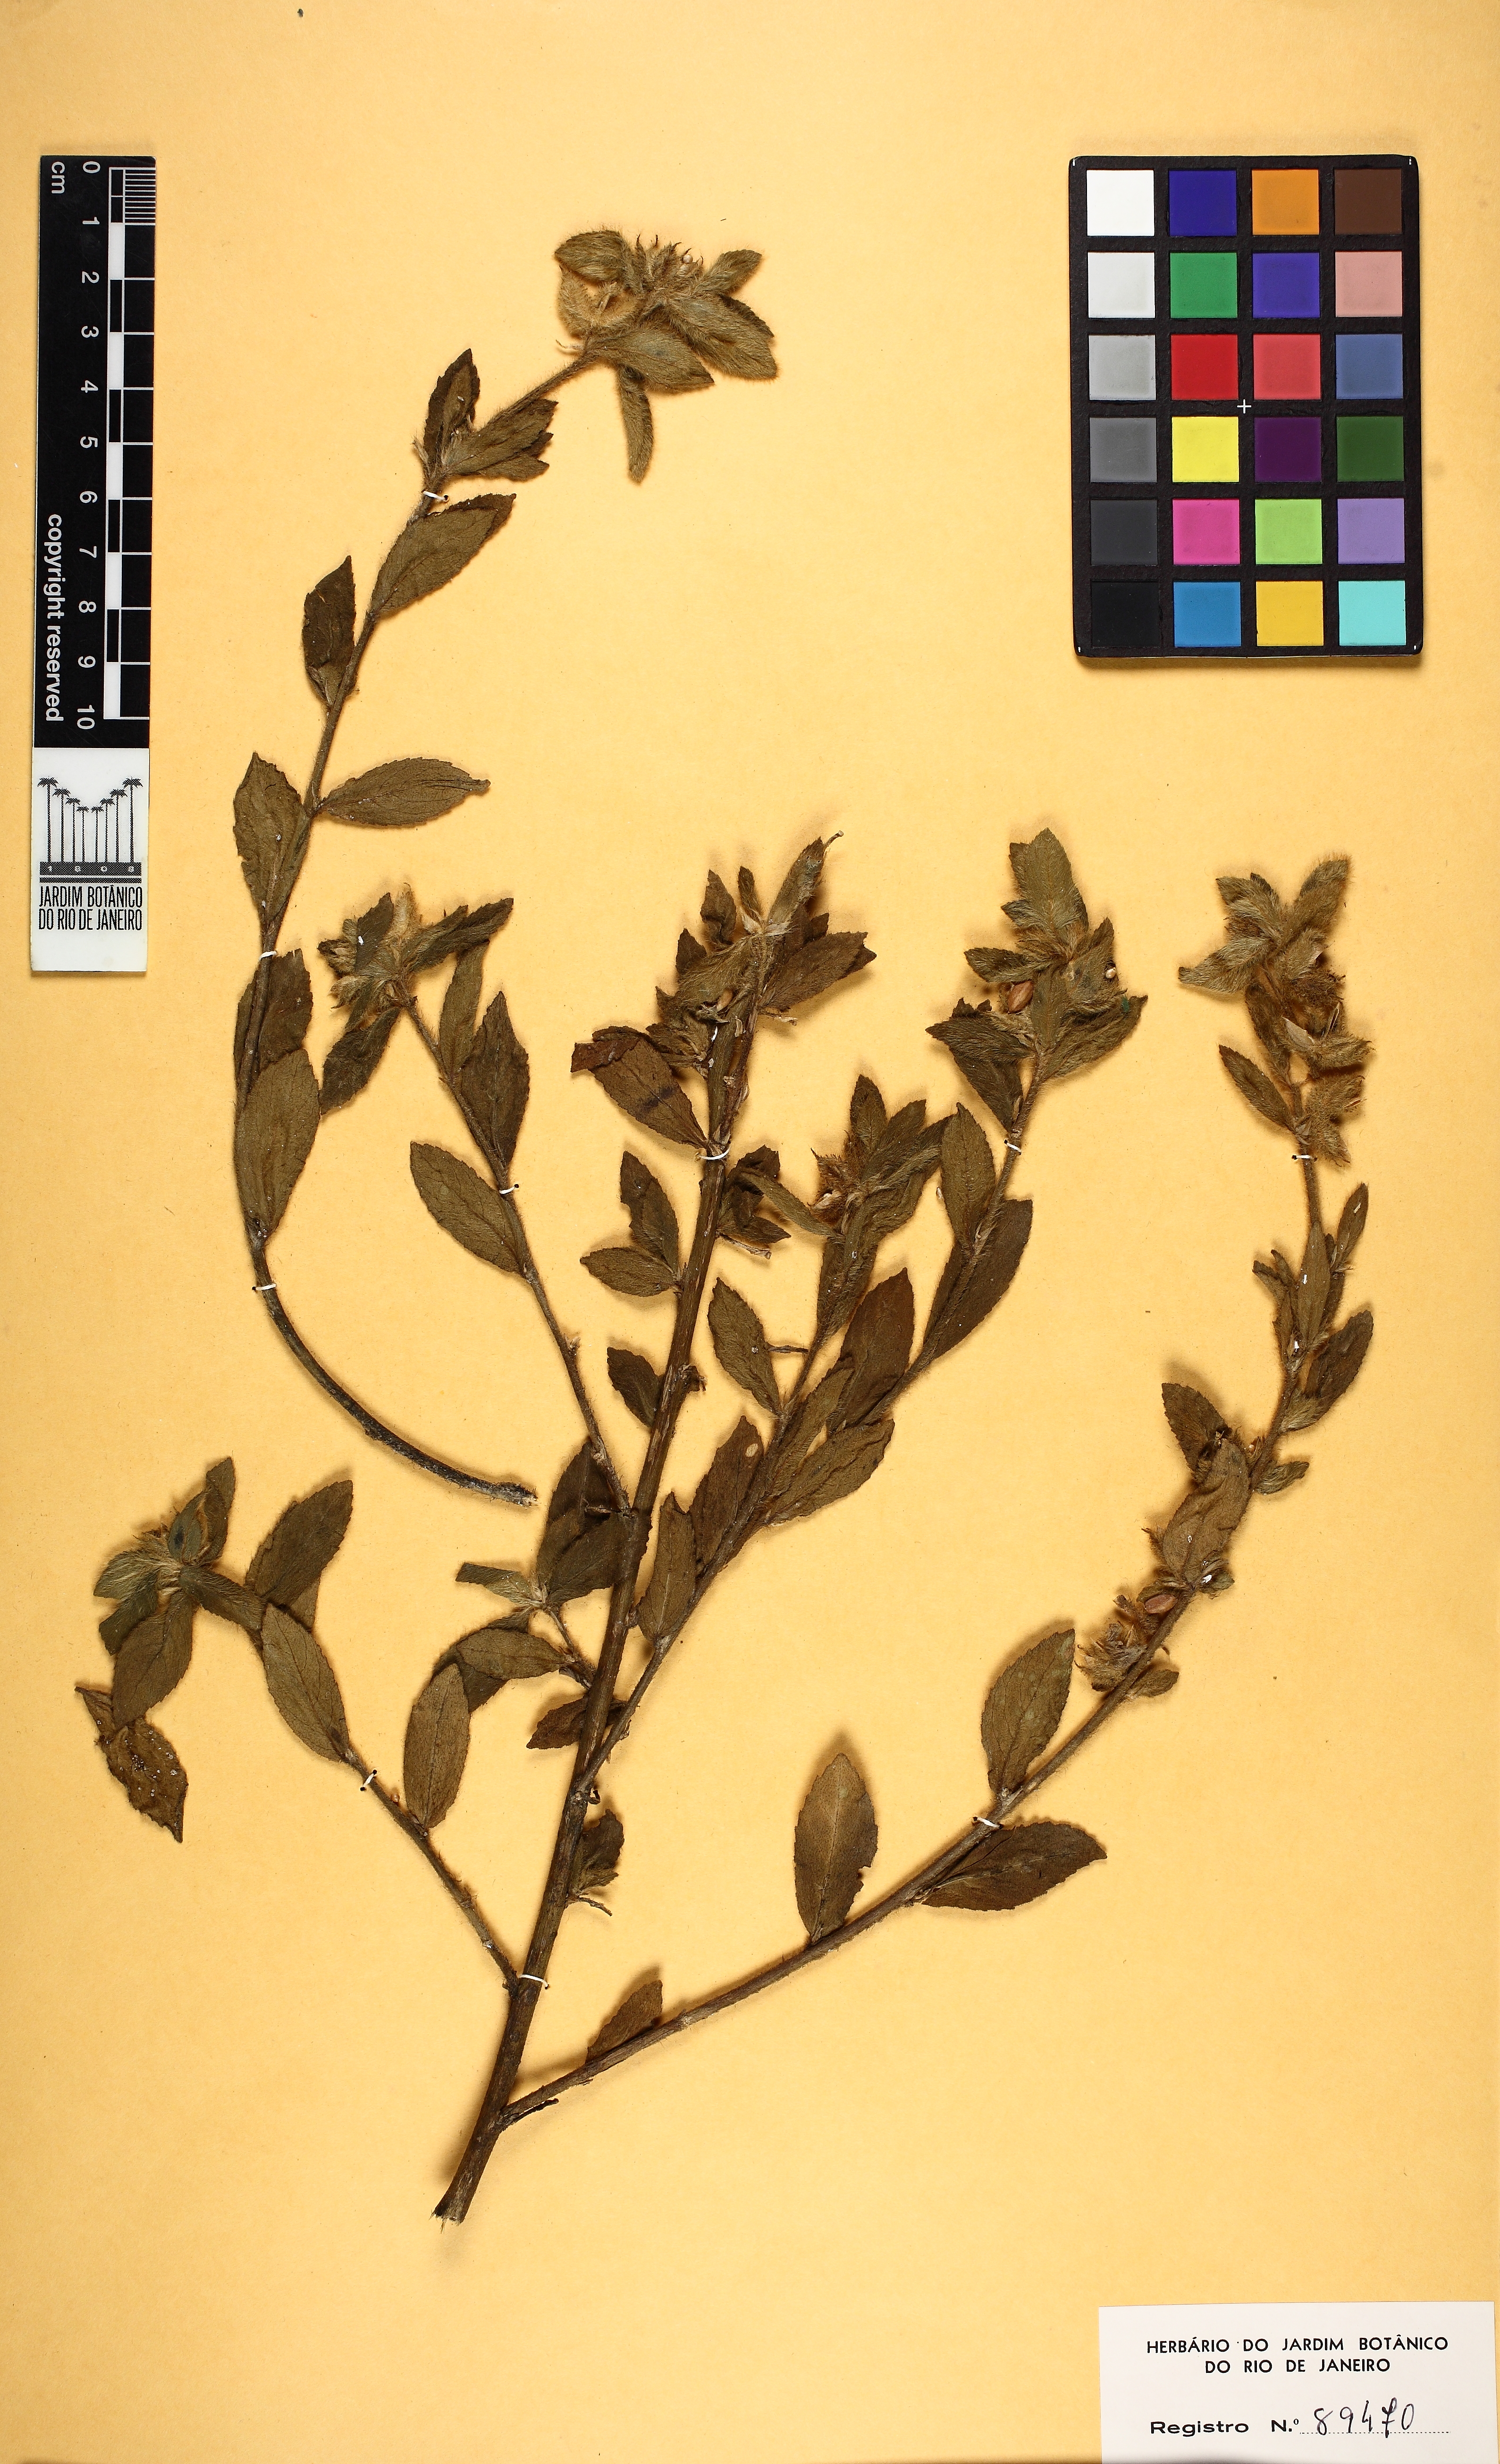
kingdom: Plantae
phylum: Tracheophyta
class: Magnoliopsida
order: Malpighiales
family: Violaceae
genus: Pombalia
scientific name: Pombalia calceolaria
